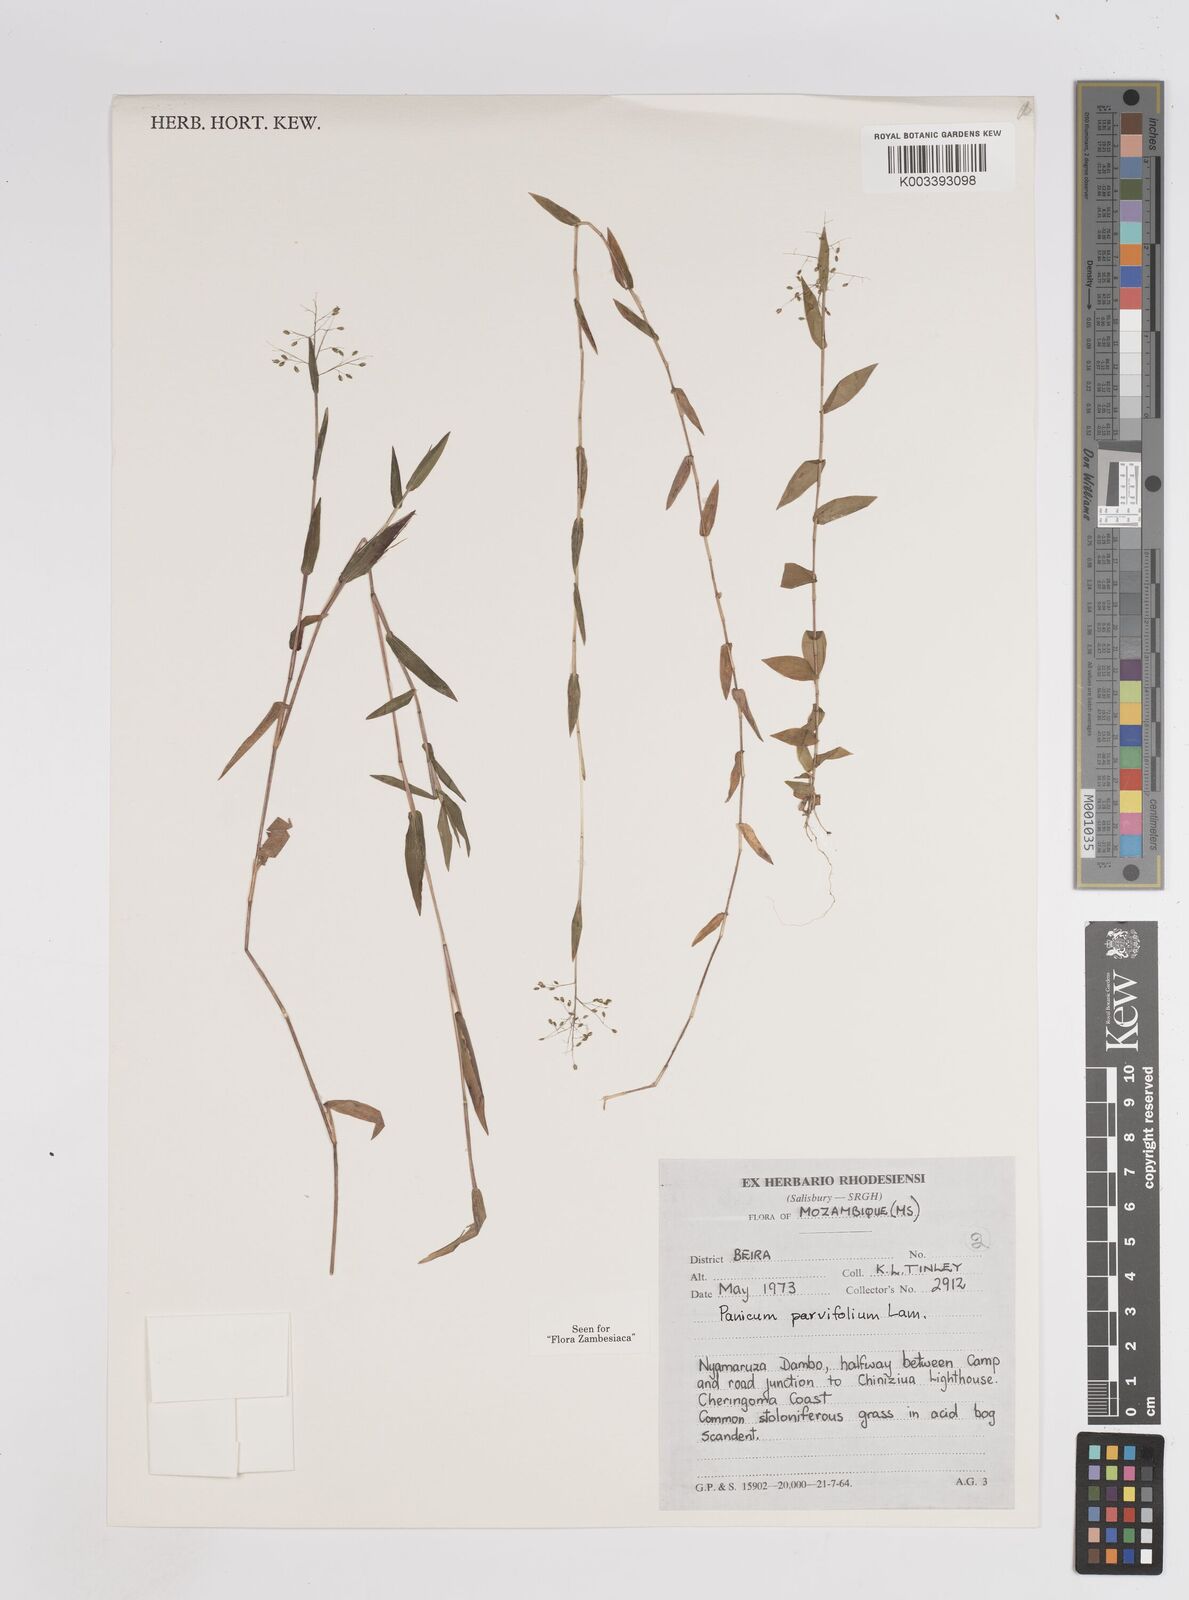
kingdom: Plantae
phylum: Tracheophyta
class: Liliopsida
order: Poales
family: Poaceae
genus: Trichanthecium
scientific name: Trichanthecium parvifolium
